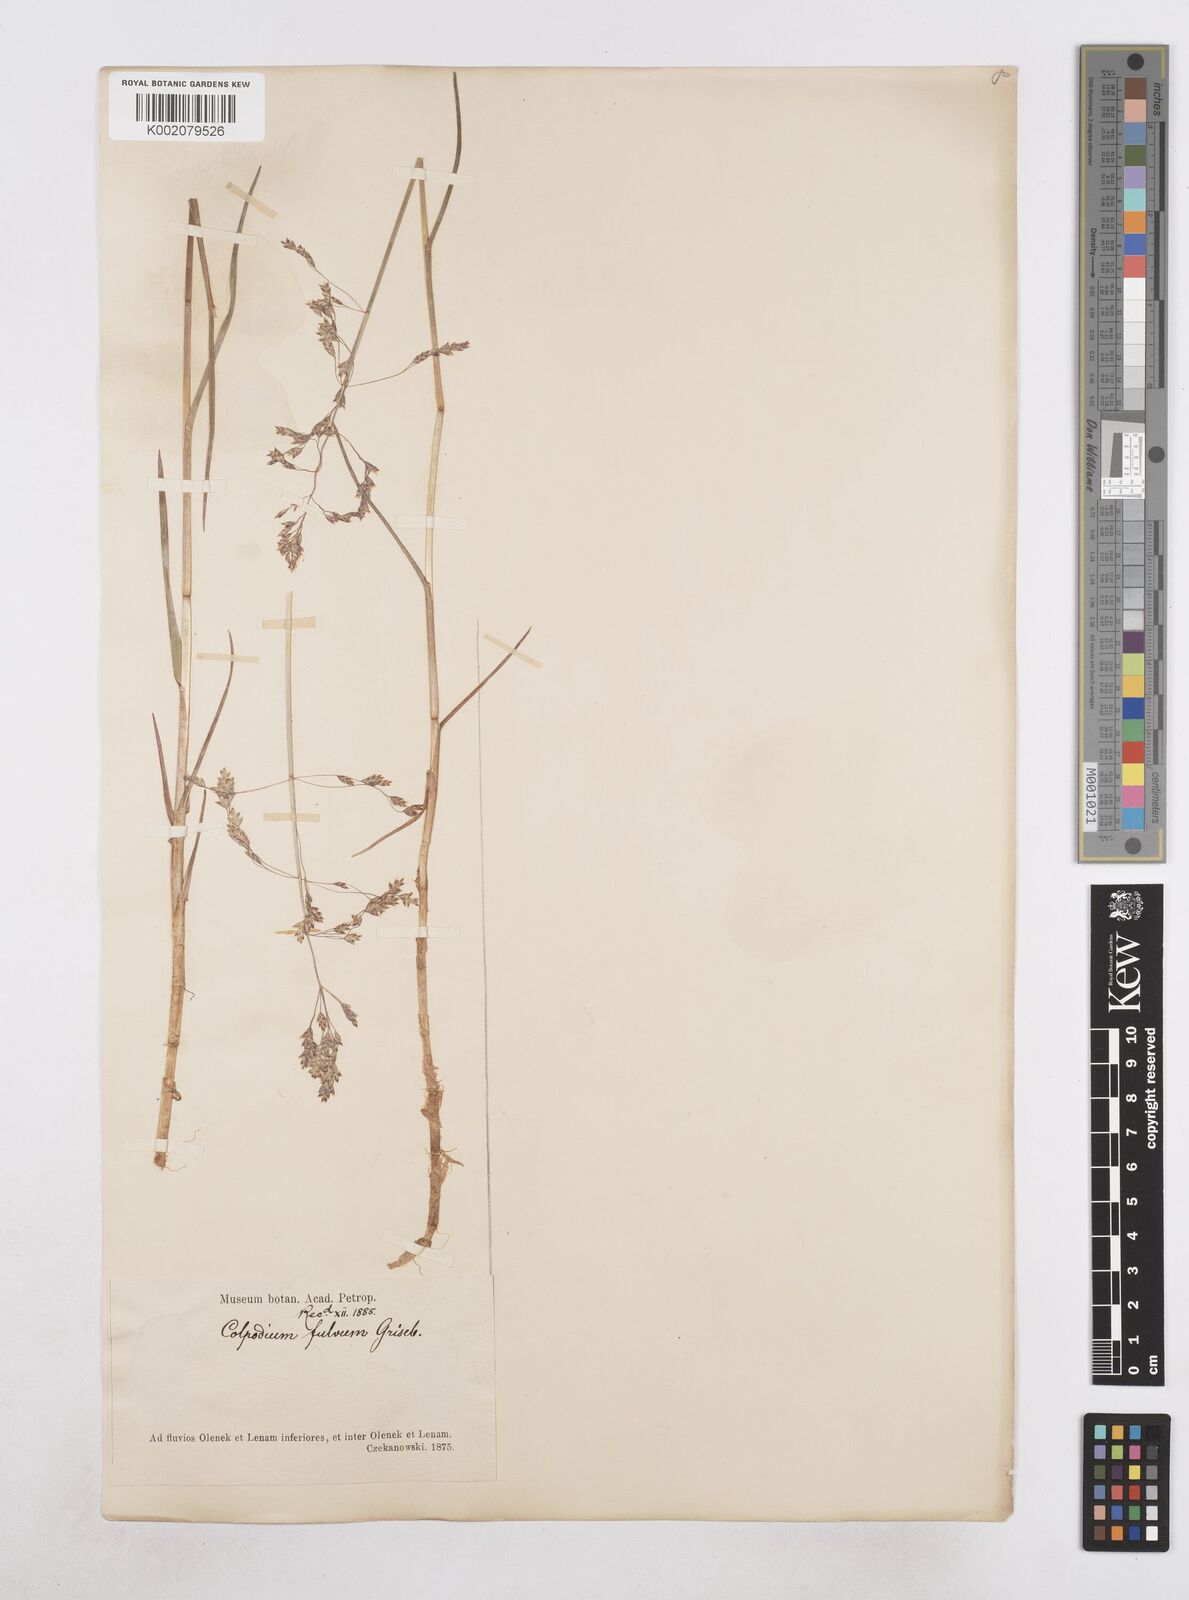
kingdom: Plantae
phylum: Tracheophyta
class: Liliopsida
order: Poales
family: Poaceae
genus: Dupontia
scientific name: Dupontia fulva
